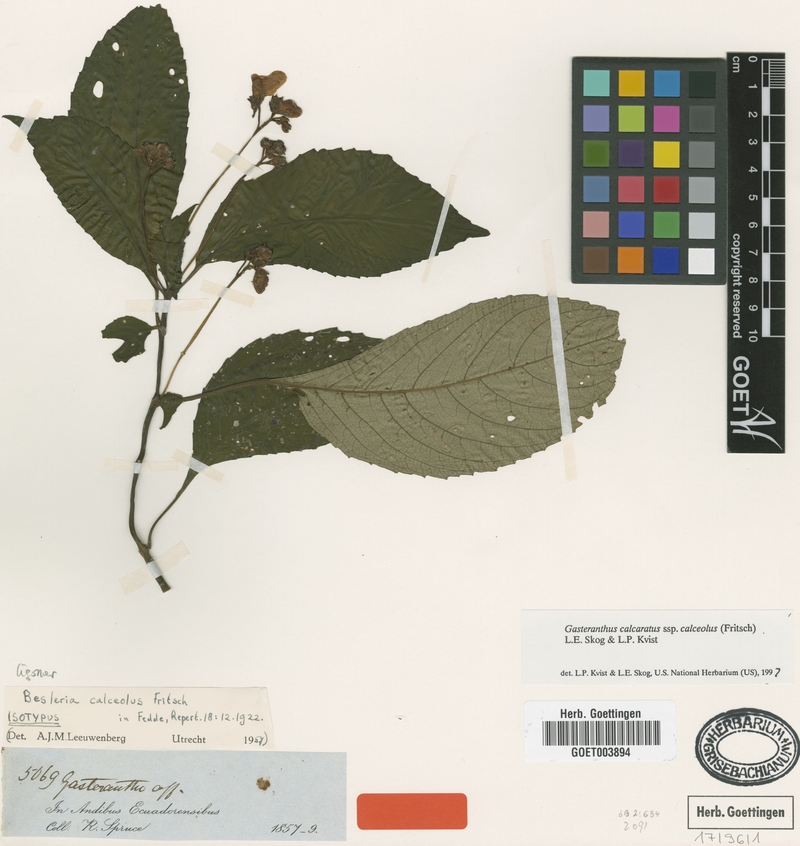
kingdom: Plantae
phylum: Tracheophyta
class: Magnoliopsida
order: Lamiales
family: Gesneriaceae
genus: Gasteranthus
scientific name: Gasteranthus calcaratus
